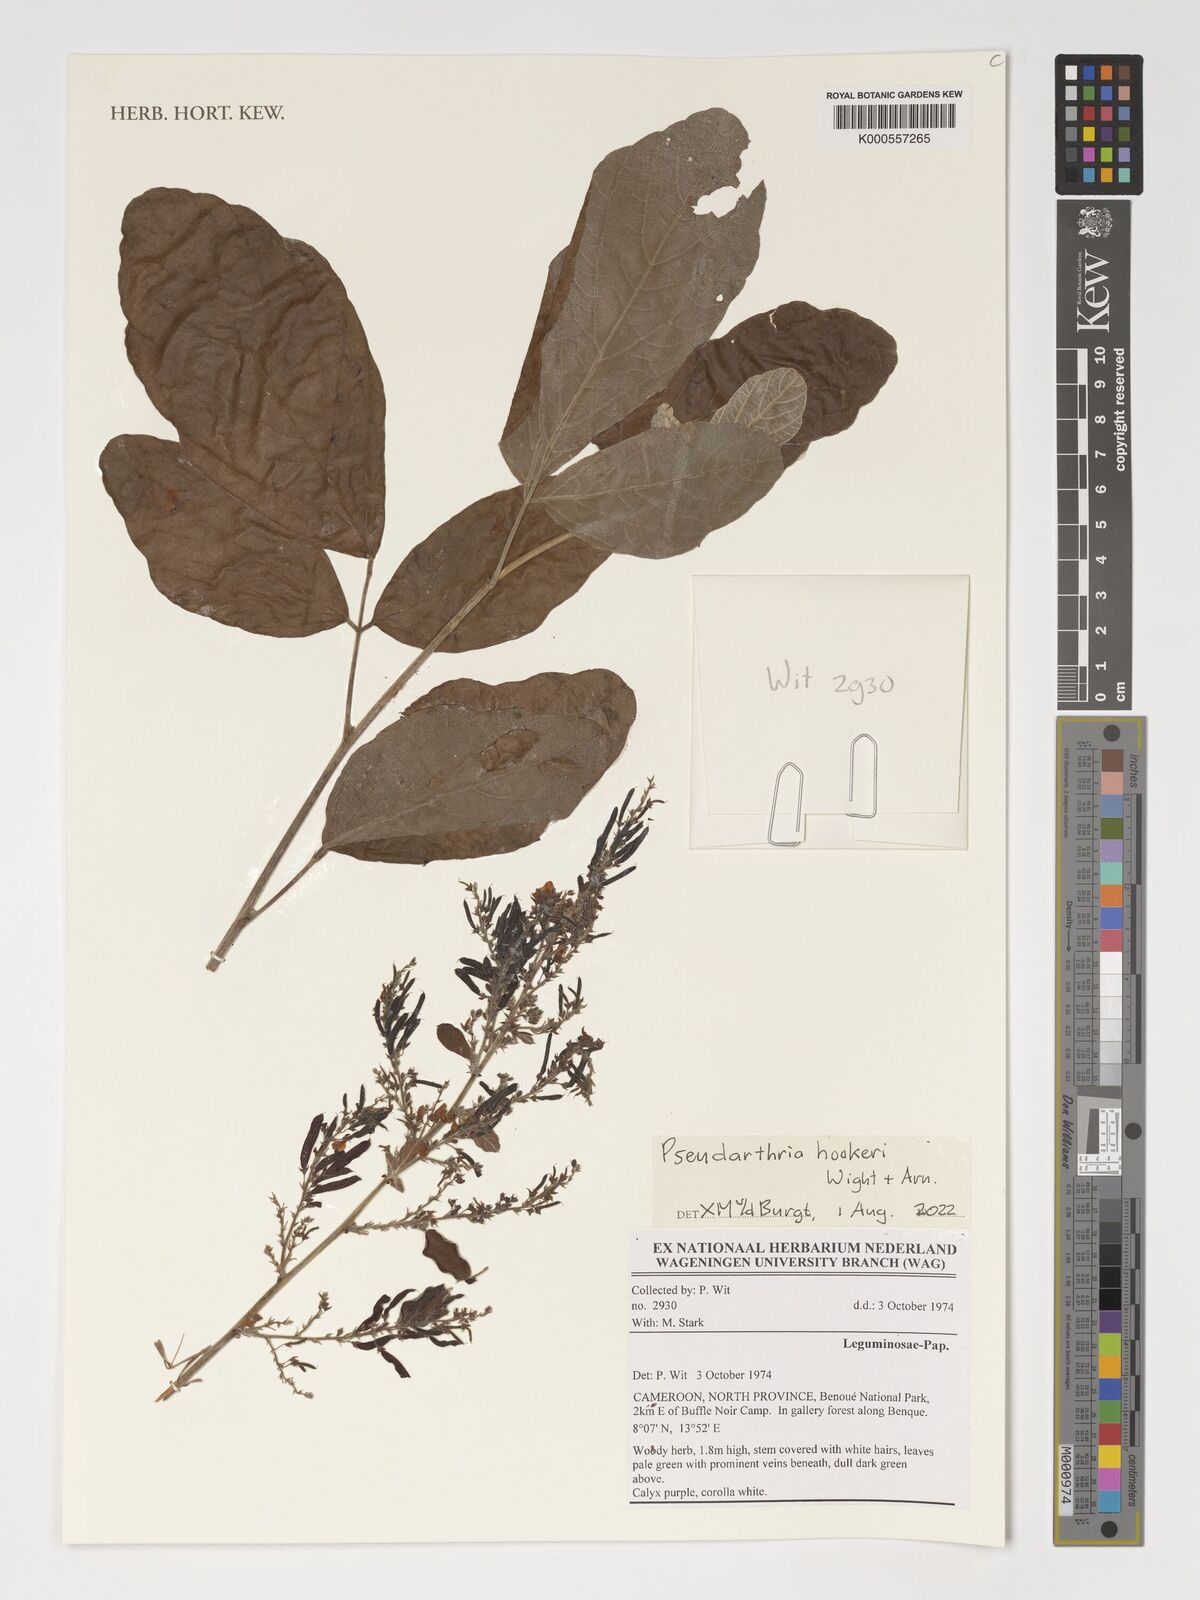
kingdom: Plantae
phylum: Tracheophyta
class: Magnoliopsida
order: Fabales
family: Fabaceae
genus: Pseudarthria
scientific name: Pseudarthria hookeri
